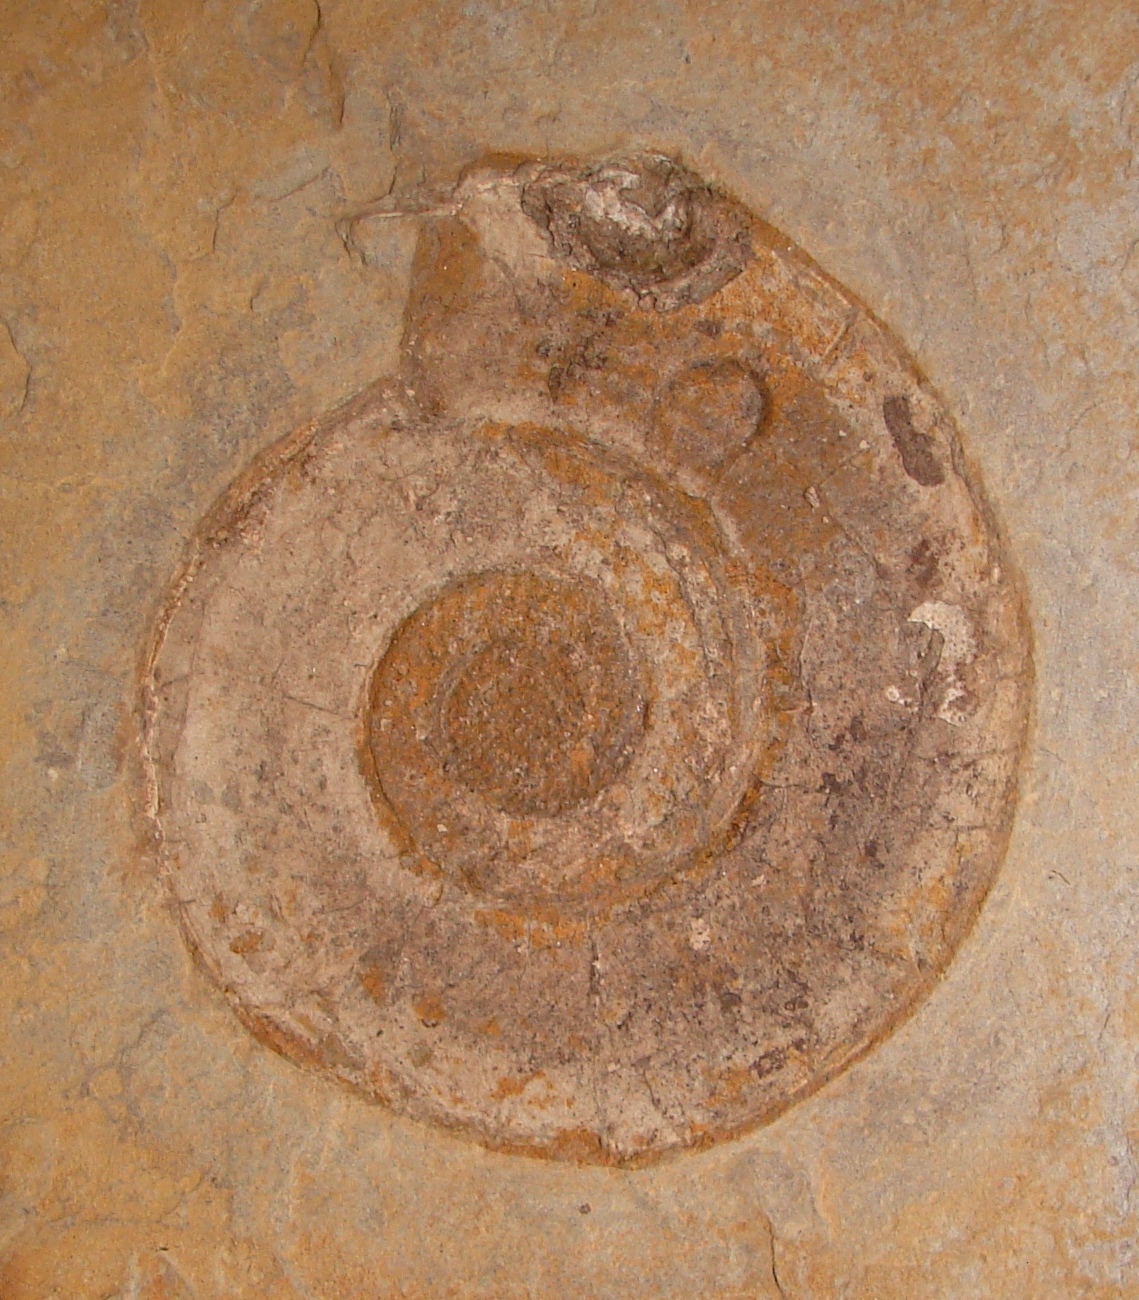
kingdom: Animalia
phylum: Mollusca
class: Cephalopoda
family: Hildoceratidae
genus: Harpoceras
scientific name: Harpoceras serpentinum
